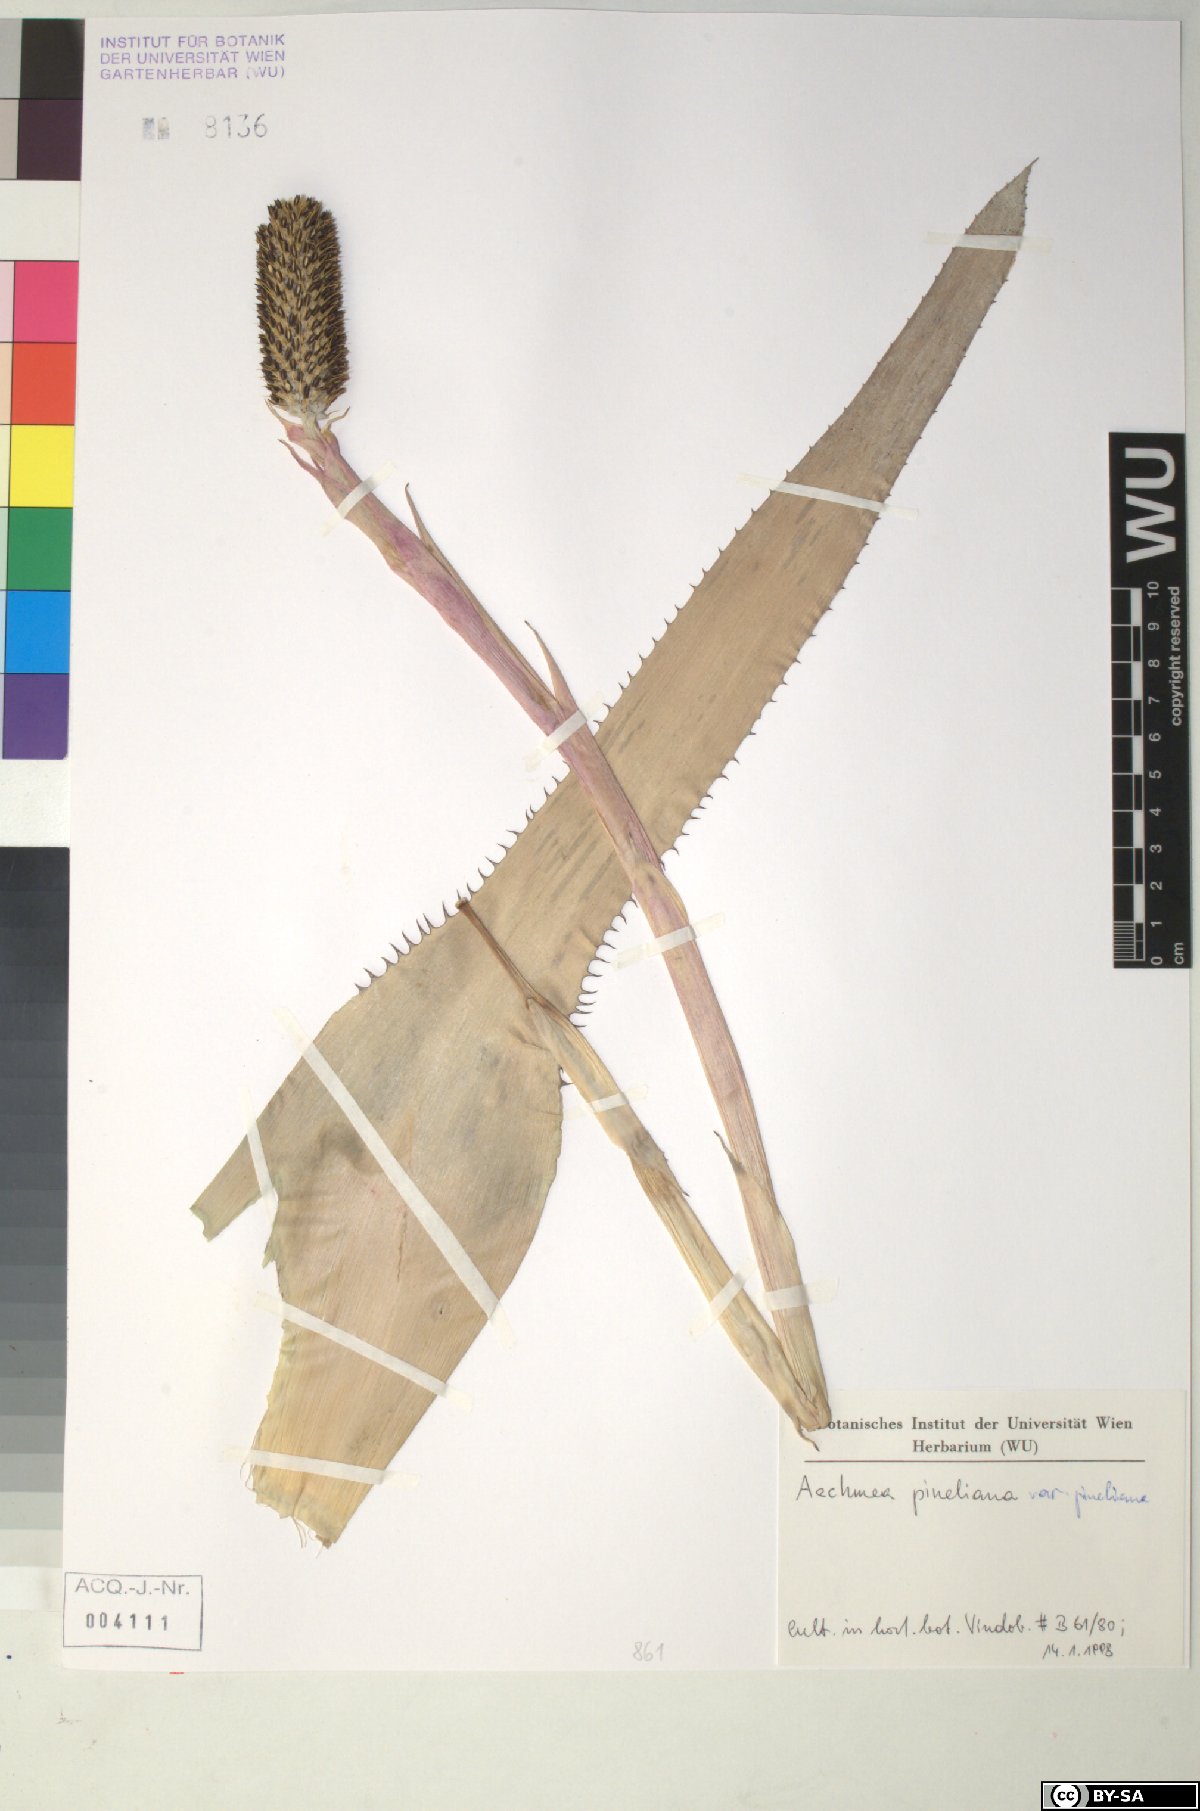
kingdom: Plantae
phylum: Tracheophyta
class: Liliopsida
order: Poales
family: Bromeliaceae
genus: Aechmea
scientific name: Aechmea pineliana
